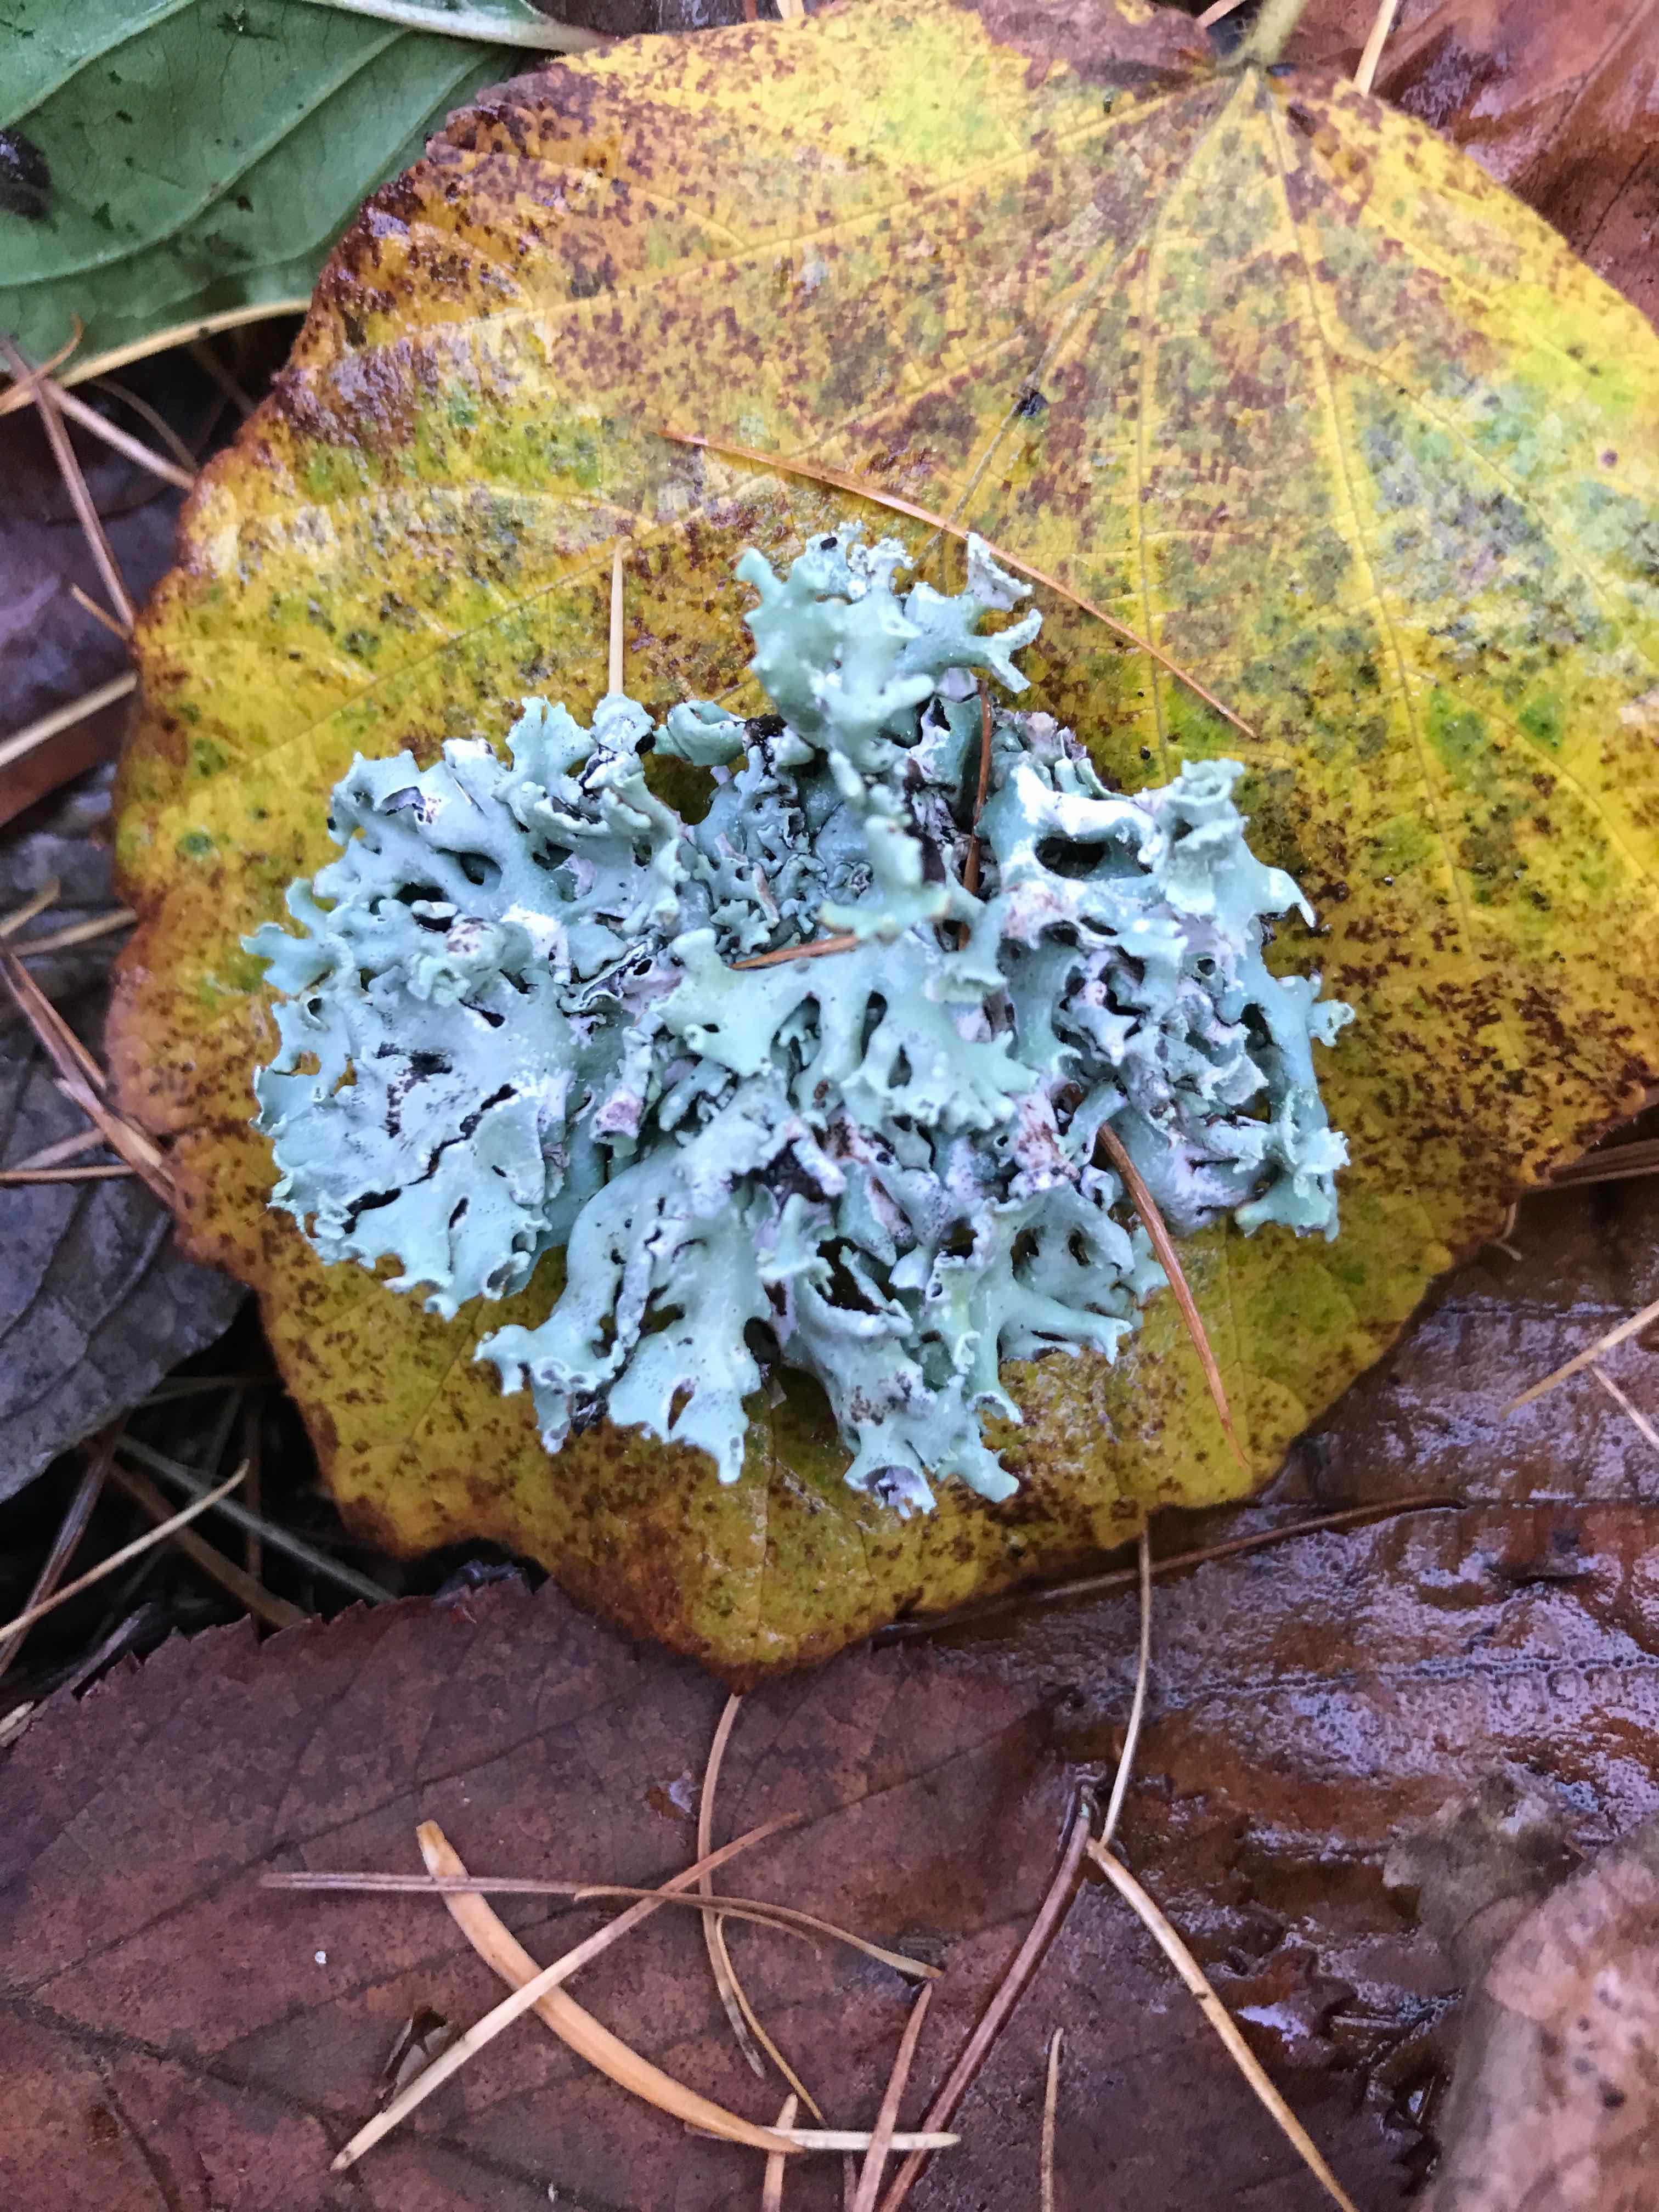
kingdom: Fungi
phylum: Ascomycota
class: Lecanoromycetes
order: Lecanorales
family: Parmeliaceae
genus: Hypogymnia
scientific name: Hypogymnia physodes
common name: almindelig kvistlav
